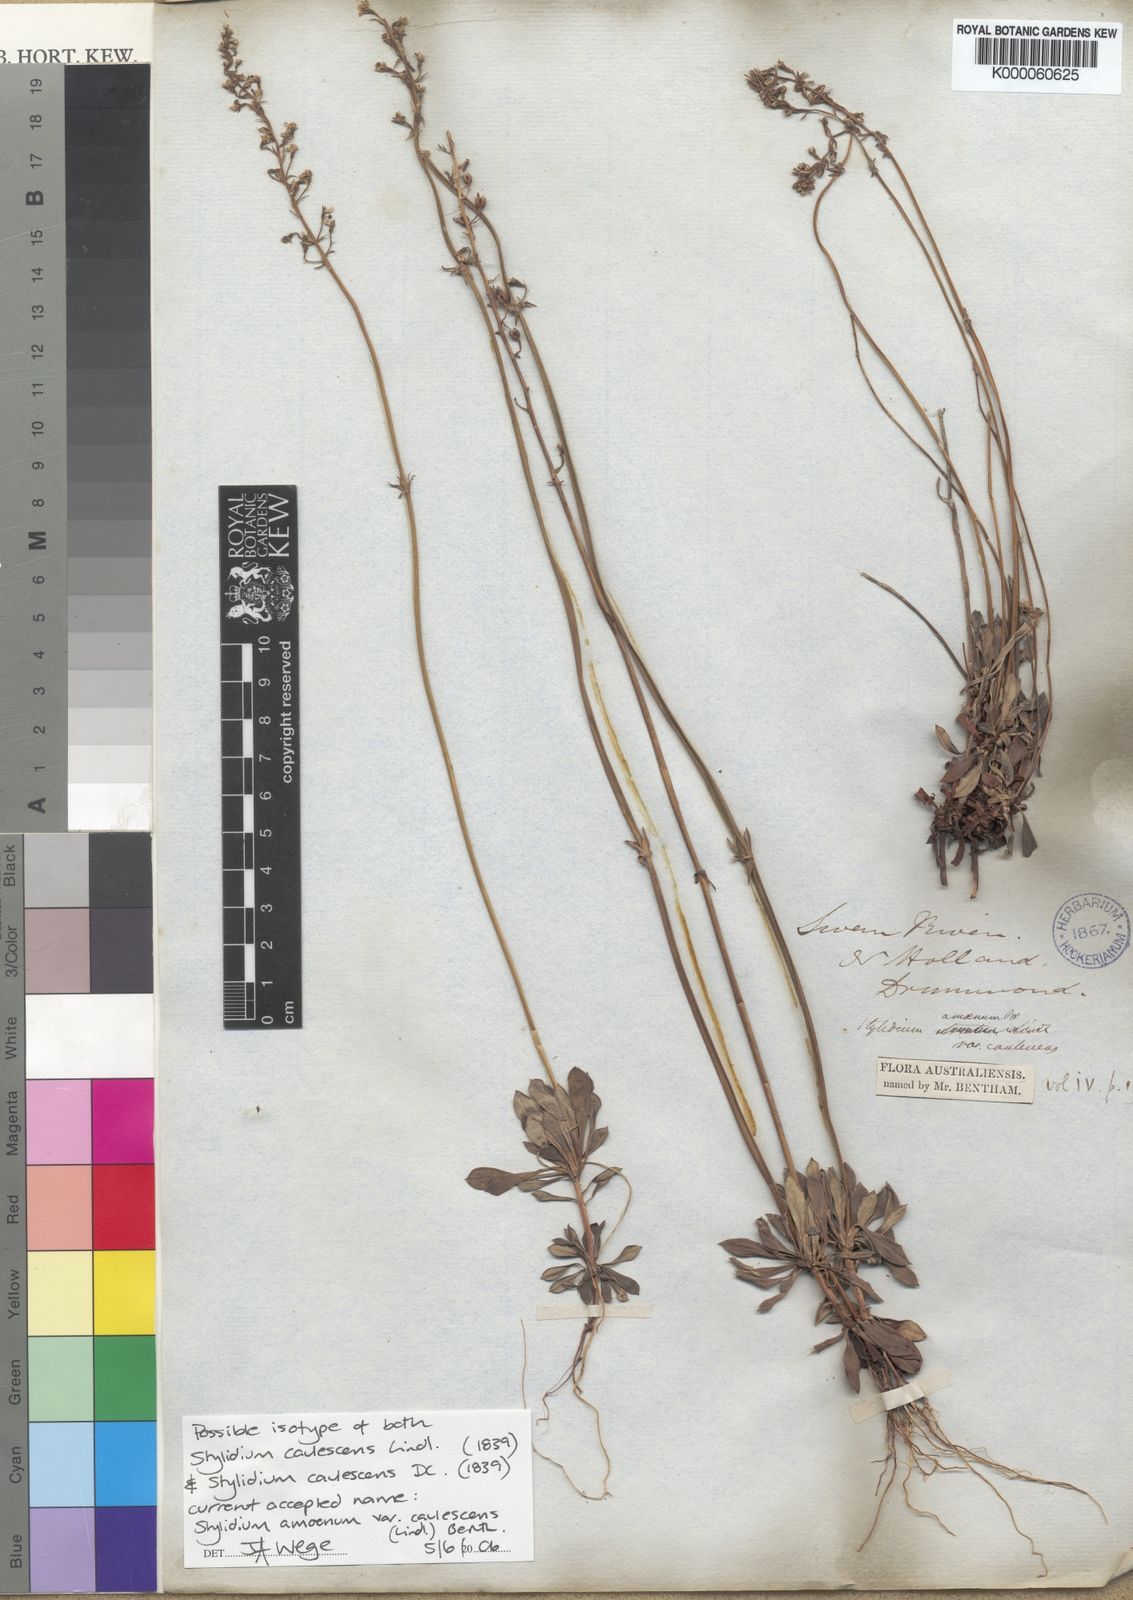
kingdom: Plantae
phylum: Tracheophyta
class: Magnoliopsida
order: Asterales
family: Stylidiaceae
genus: Stylidium
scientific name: Stylidium amoenum
